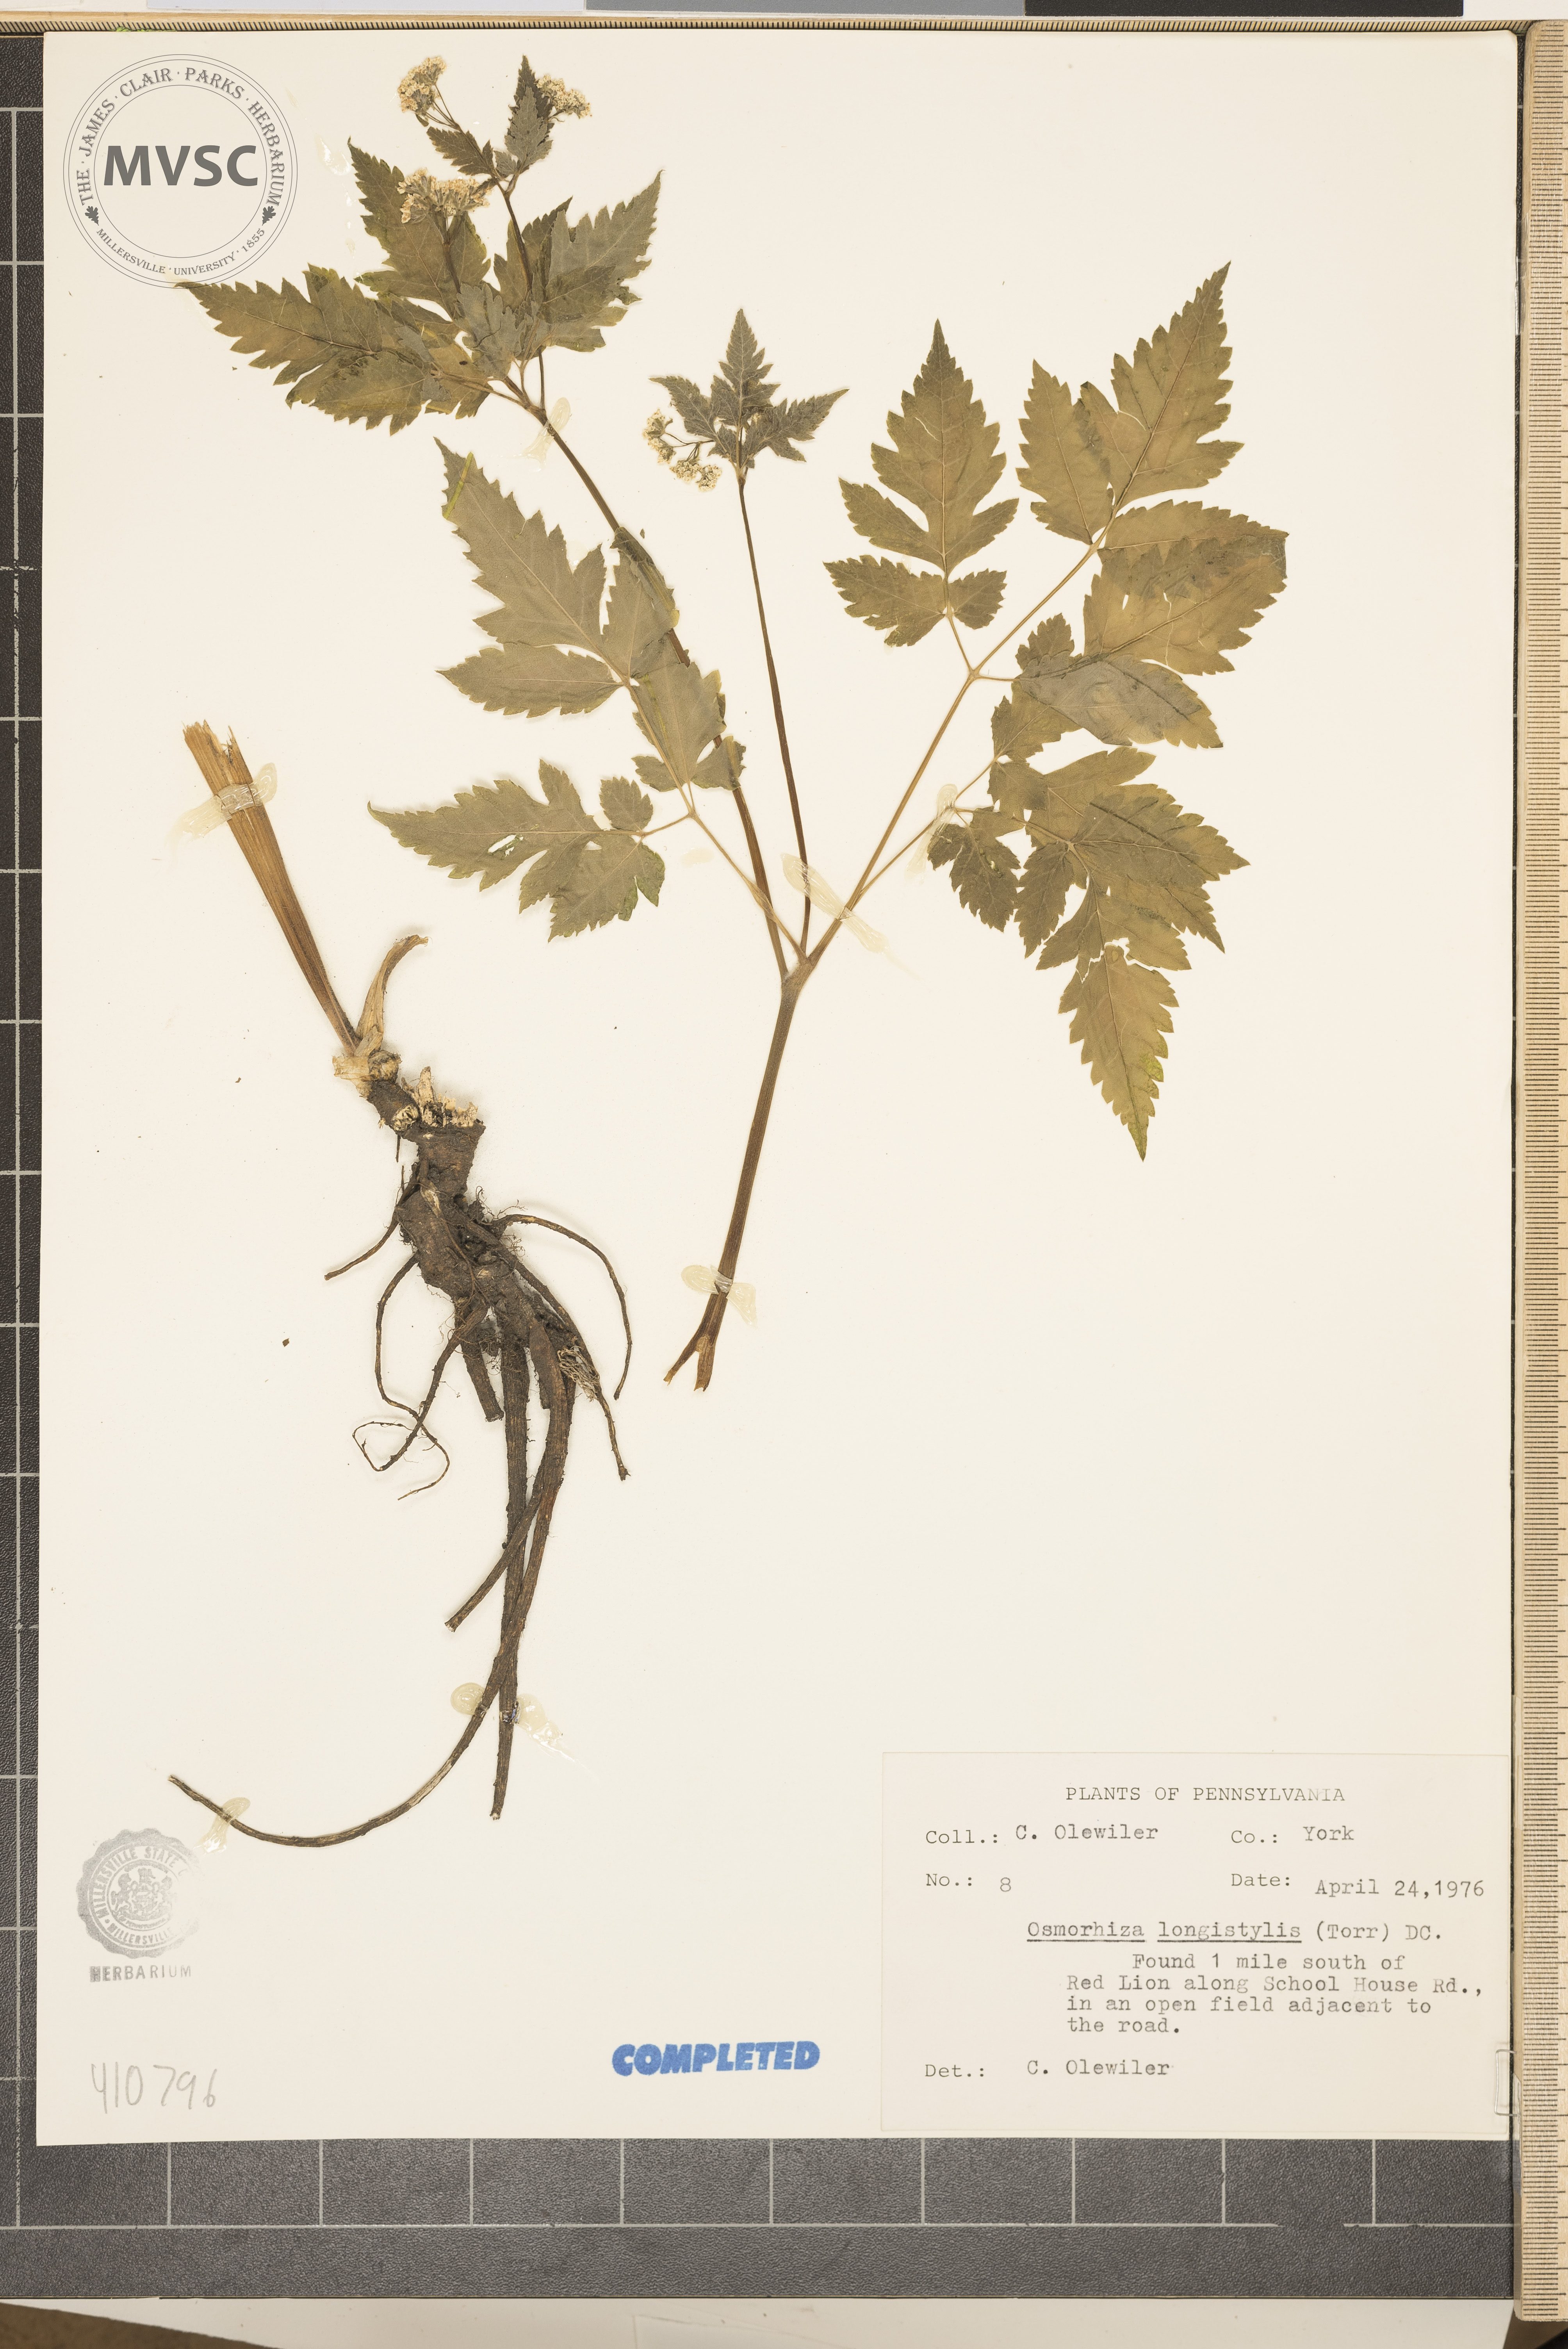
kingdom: Plantae
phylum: Tracheophyta
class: Magnoliopsida
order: Apiales
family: Apiaceae
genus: Osmorhiza
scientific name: Osmorhiza longistylis
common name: Smooth sweet cicely
